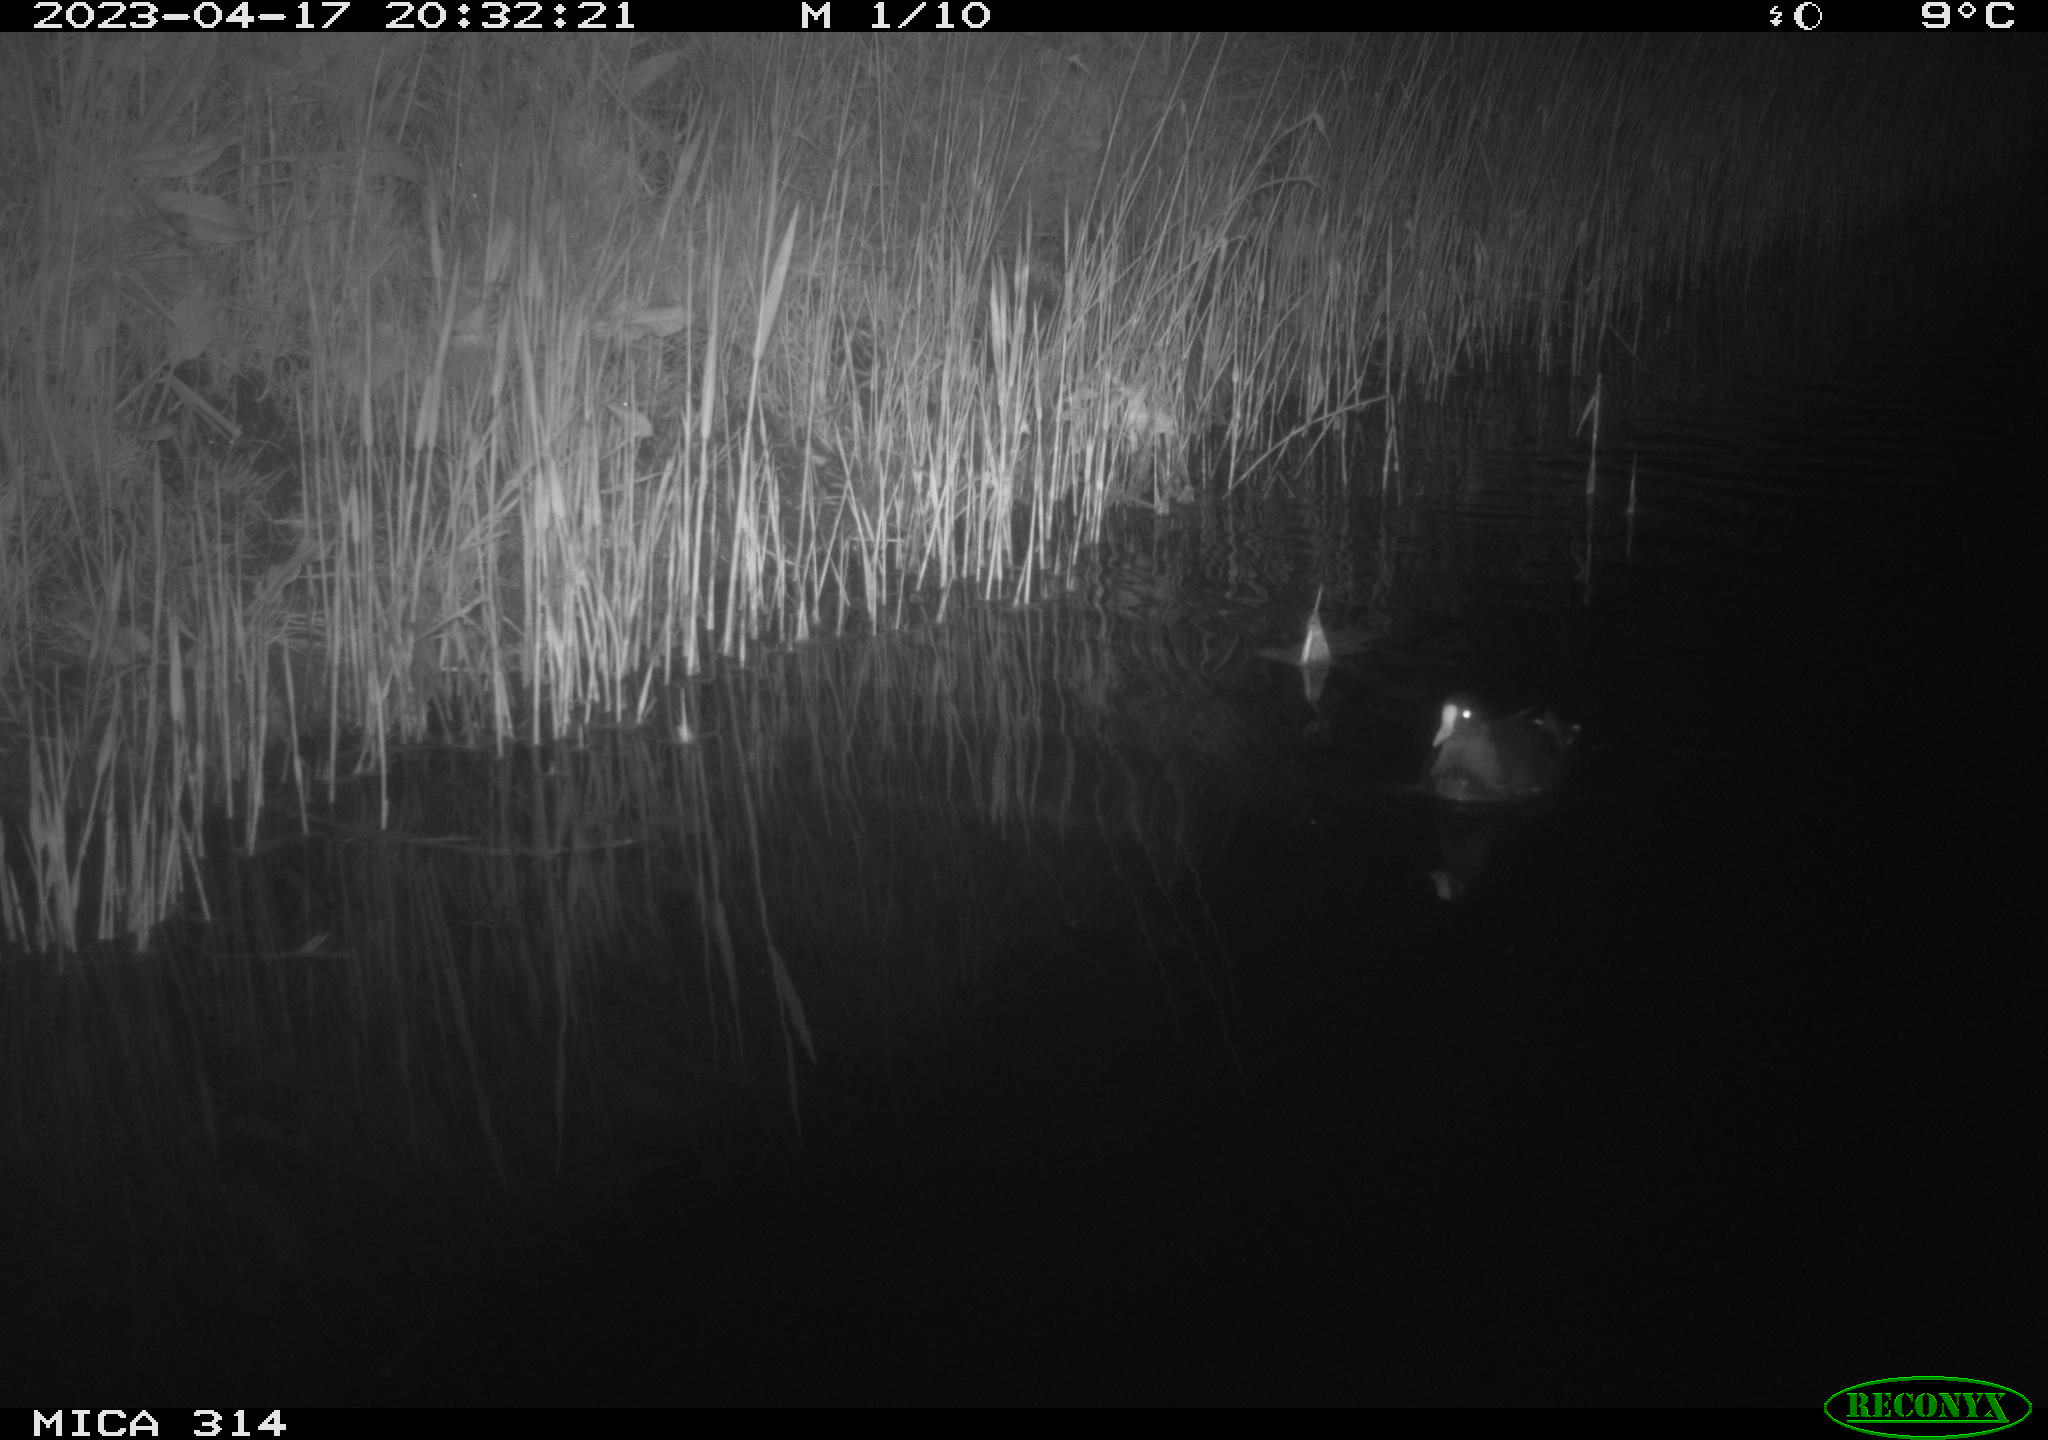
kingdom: Animalia
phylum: Chordata
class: Aves
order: Gruiformes
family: Rallidae
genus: Gallinula
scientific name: Gallinula chloropus
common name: Common moorhen
